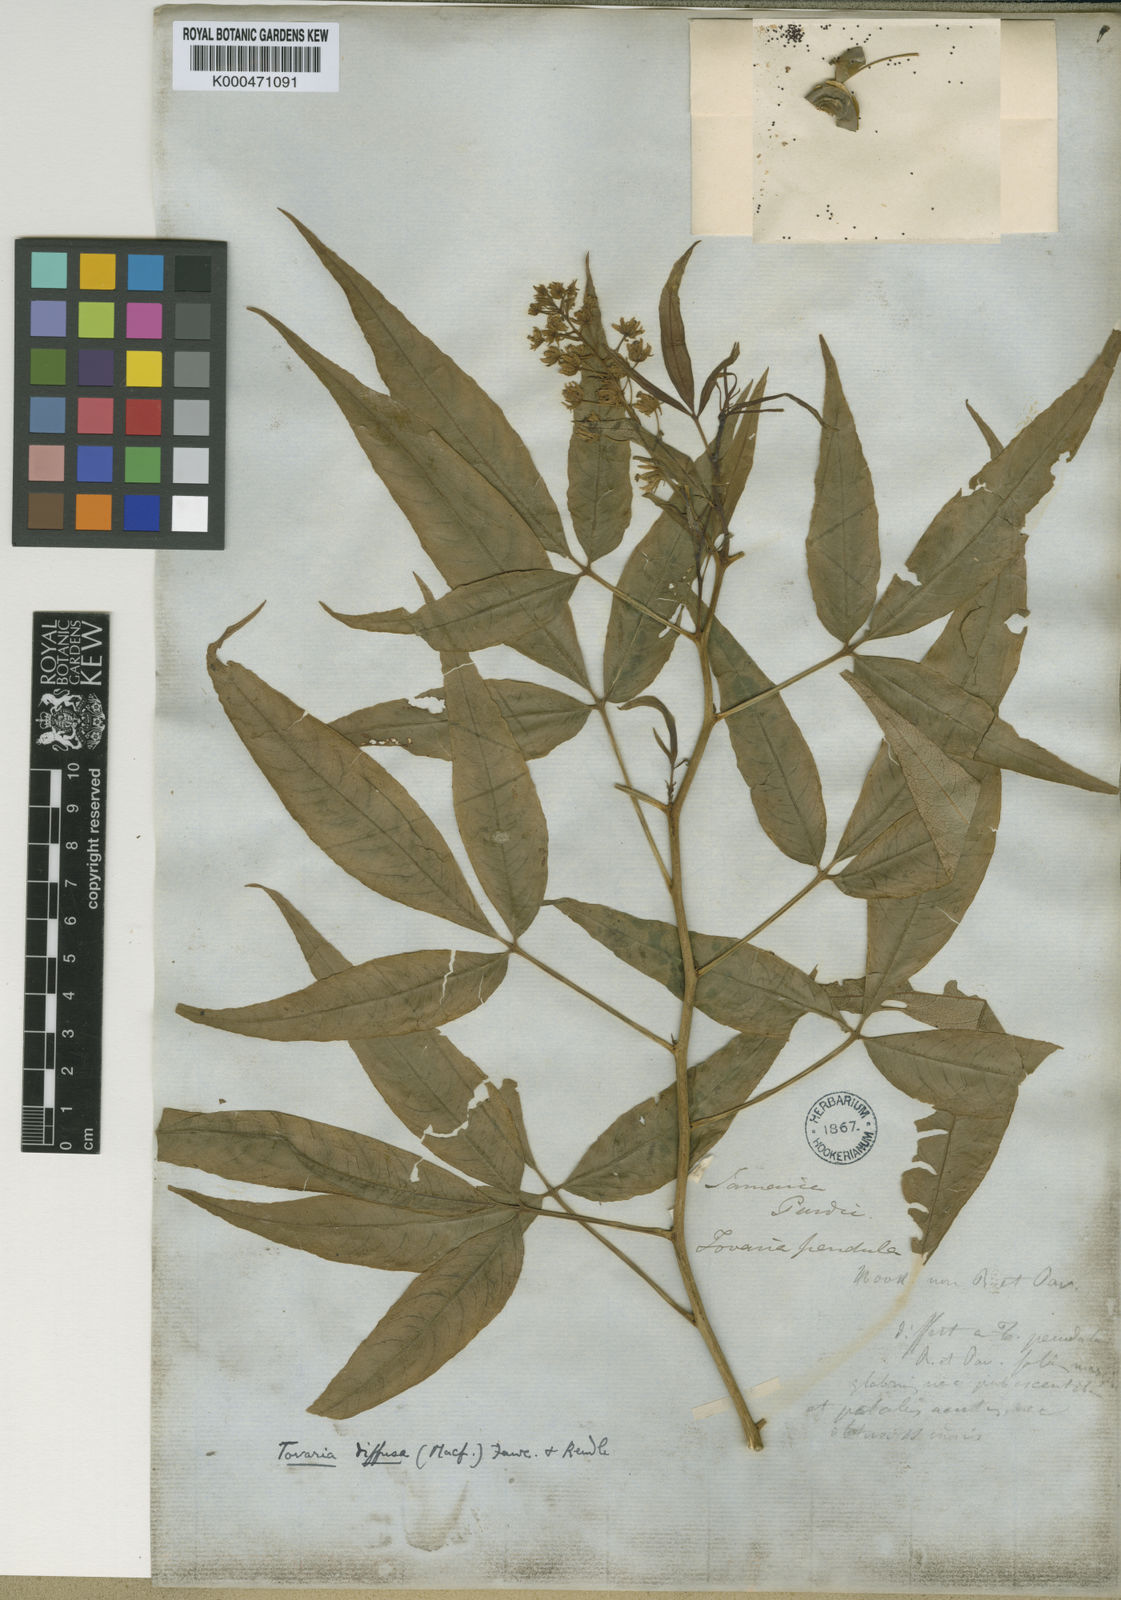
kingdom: Plantae
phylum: Tracheophyta
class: Magnoliopsida
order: Brassicales
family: Tovariaceae
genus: Tovaria
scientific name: Tovaria diffusa
